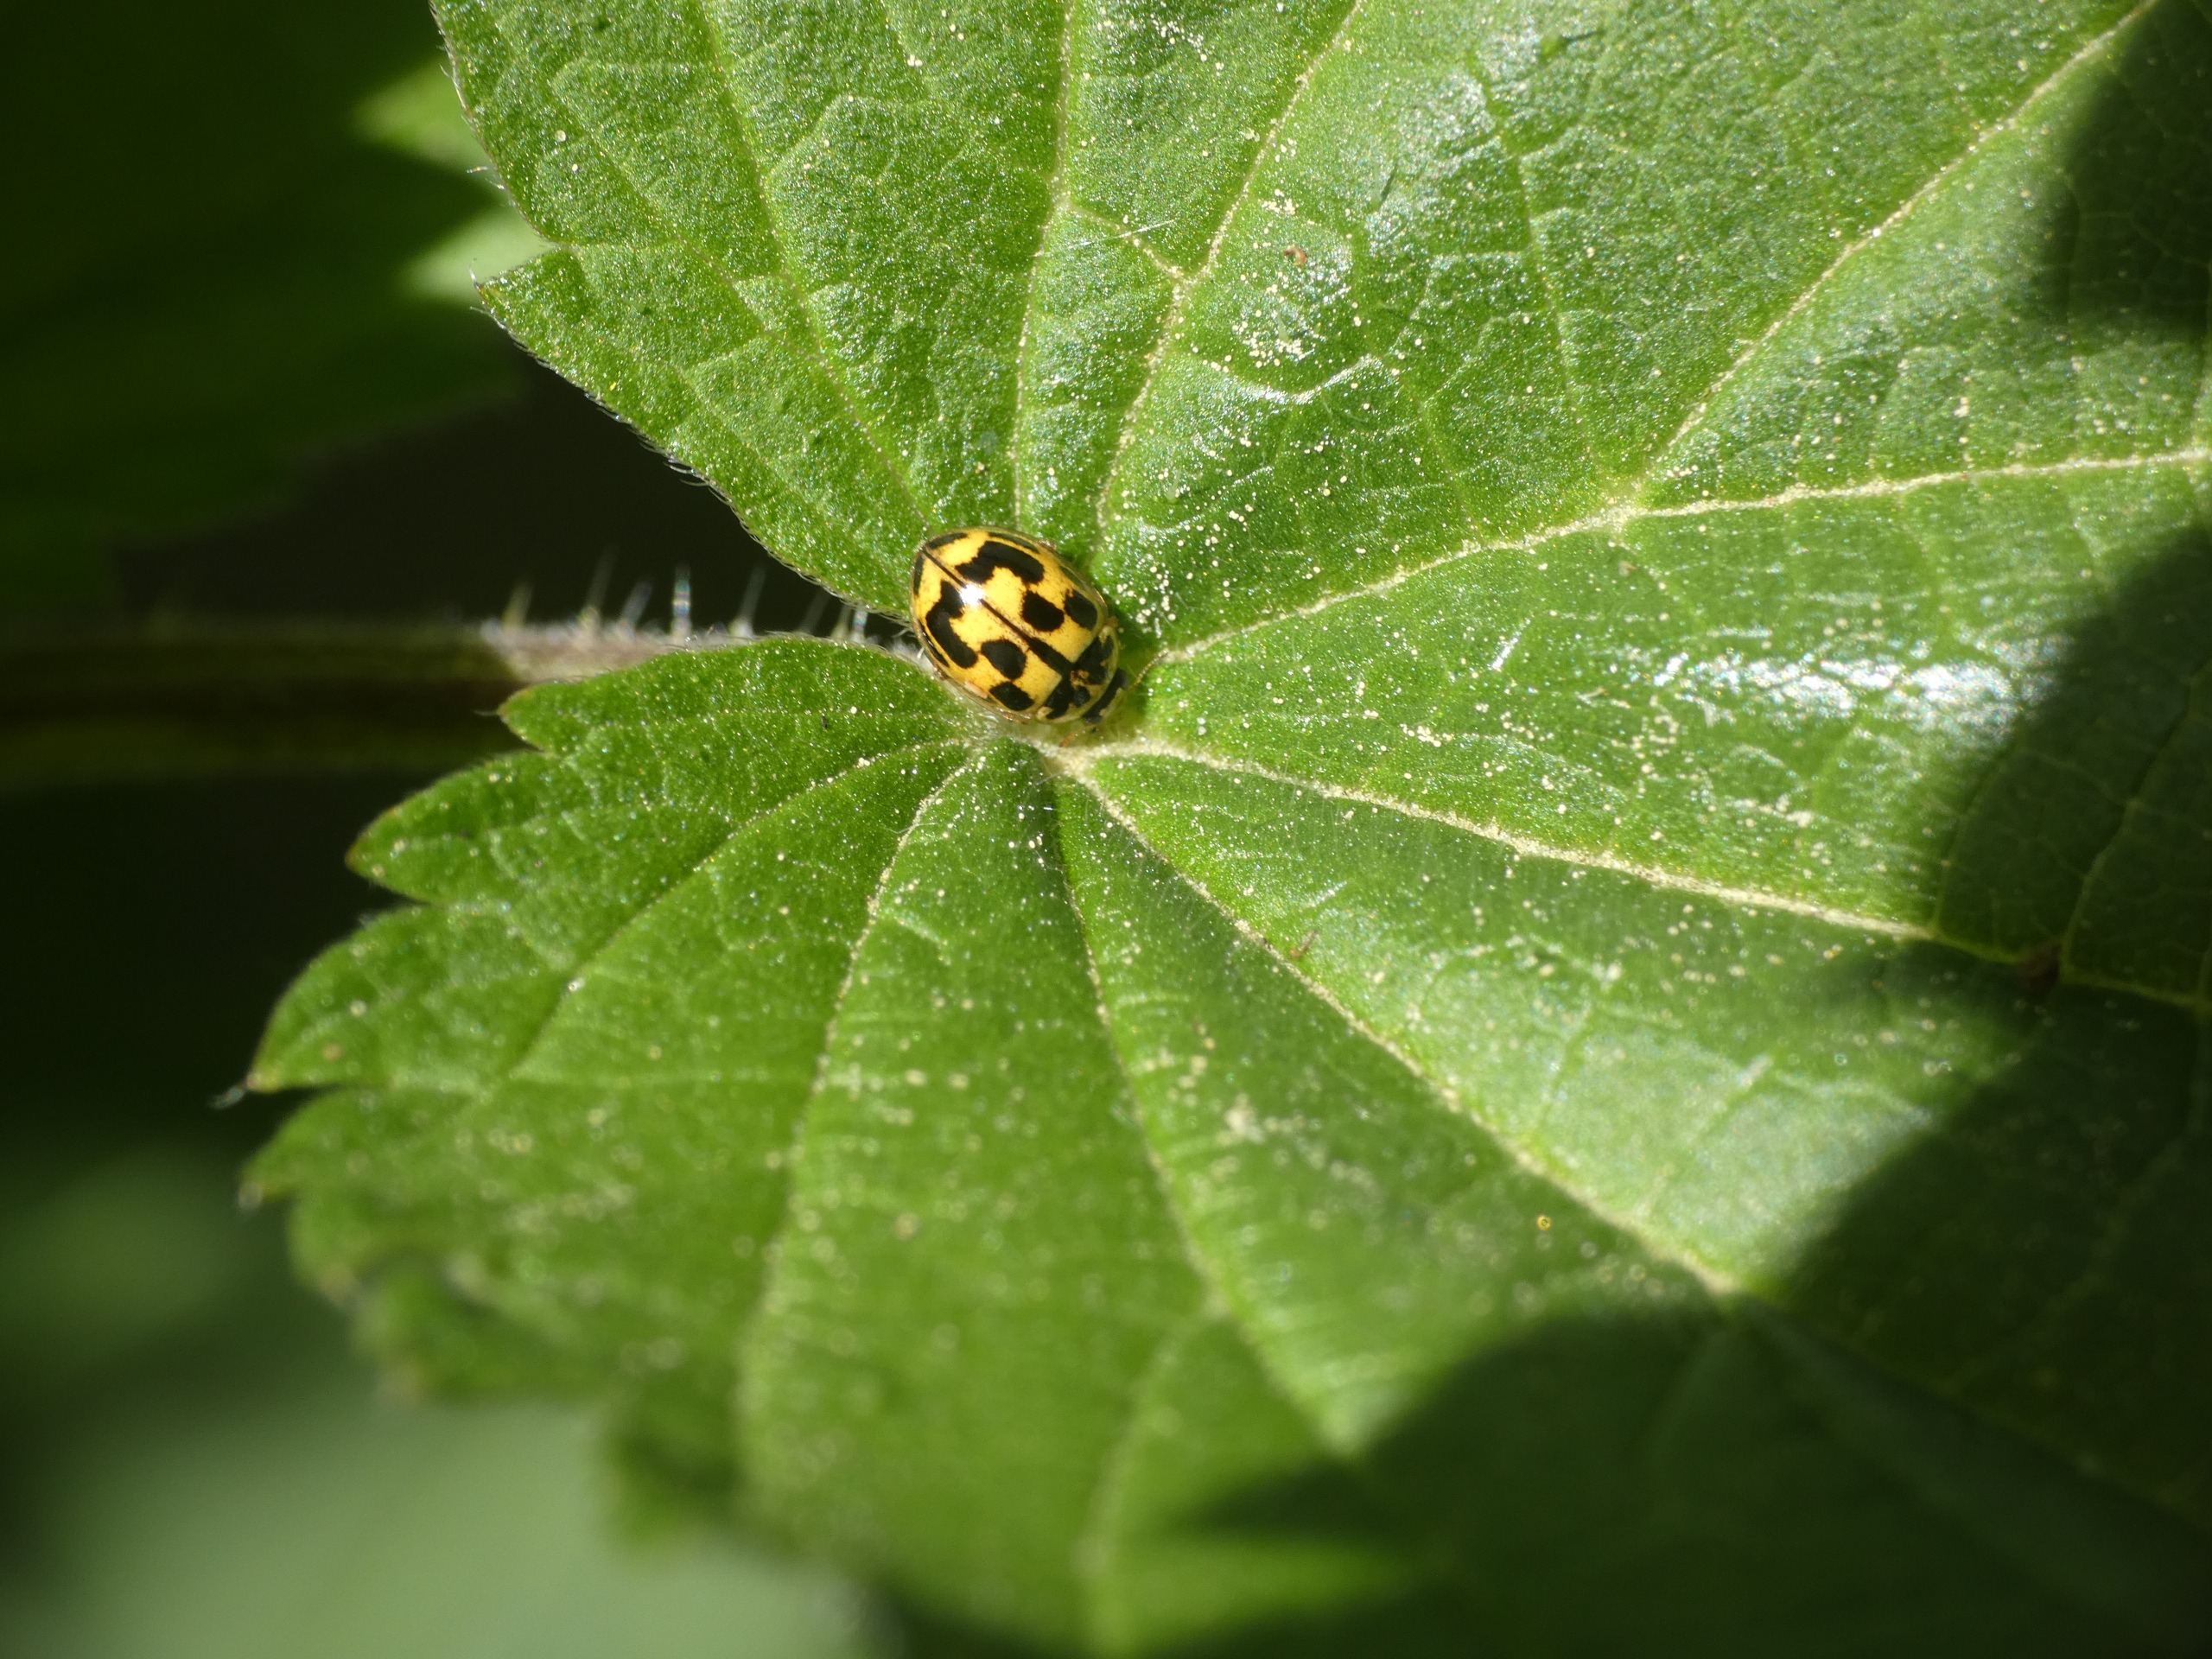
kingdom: Animalia
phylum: Arthropoda
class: Insecta
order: Coleoptera
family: Coccinellidae
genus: Propylaea
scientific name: Propylaea quatuordecimpunctata
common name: Skakbræt
